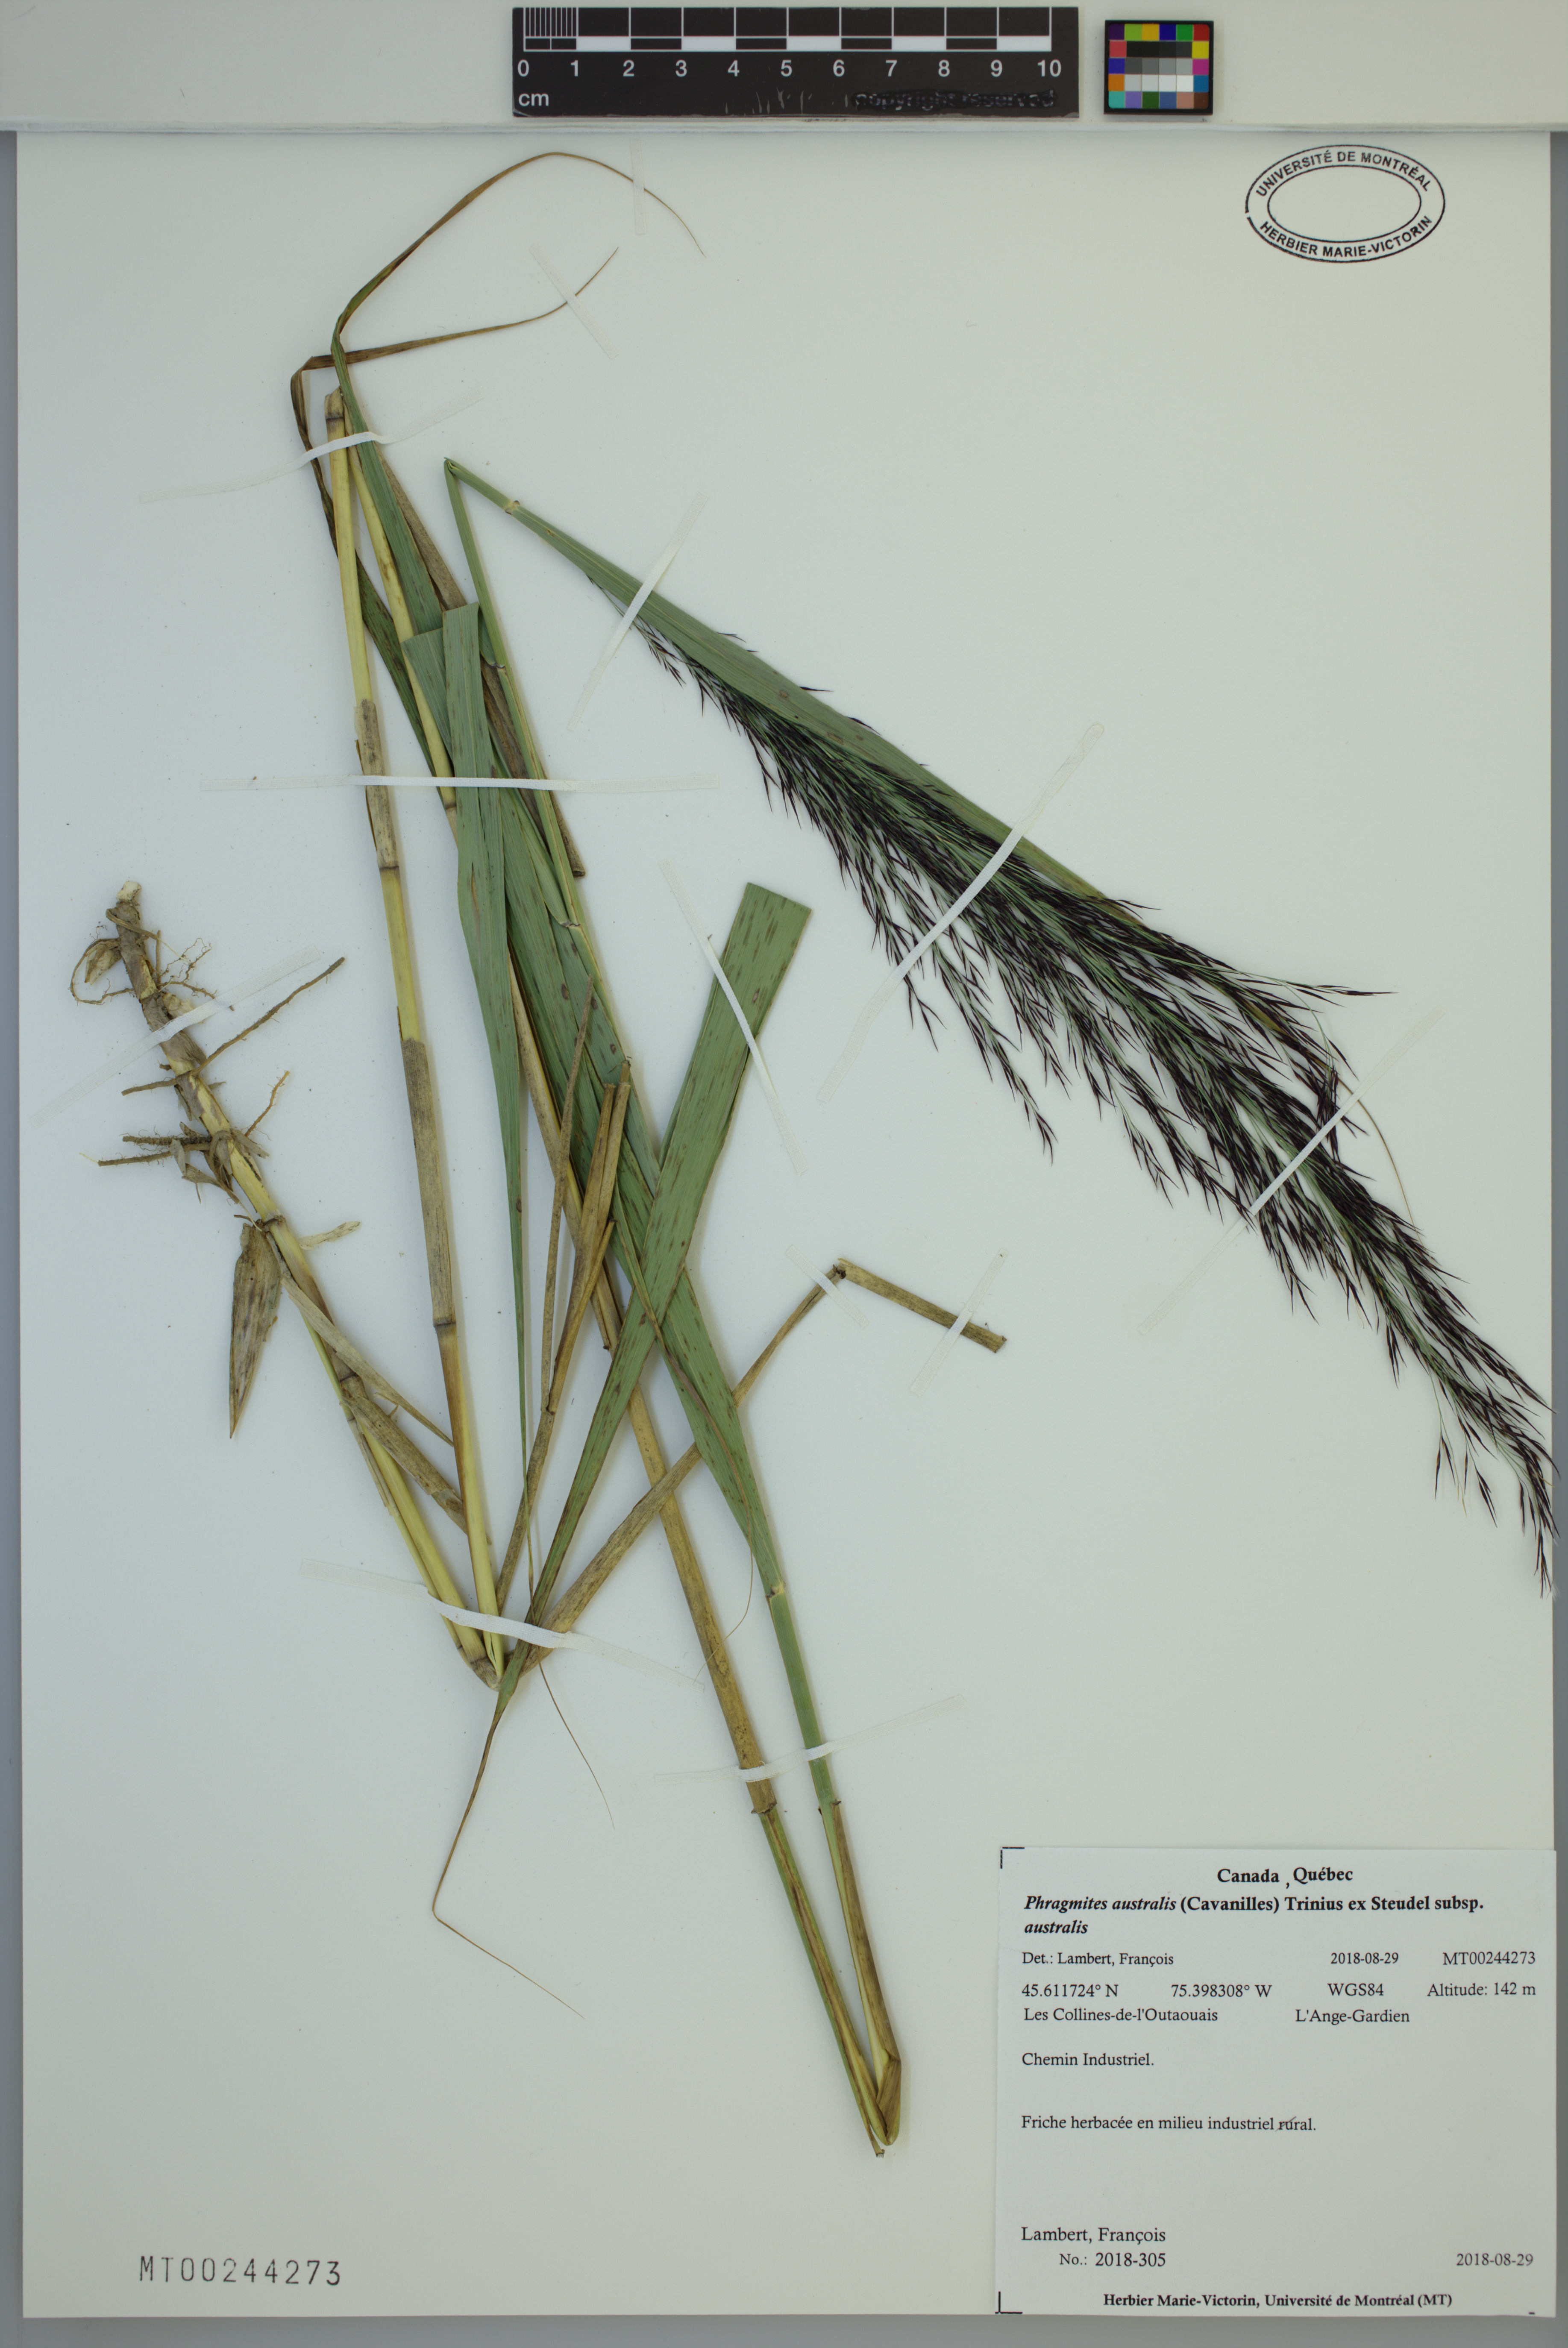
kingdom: Plantae
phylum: Tracheophyta
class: Liliopsida
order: Poales
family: Poaceae
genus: Phragmites
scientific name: Phragmites australis
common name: Common reed
